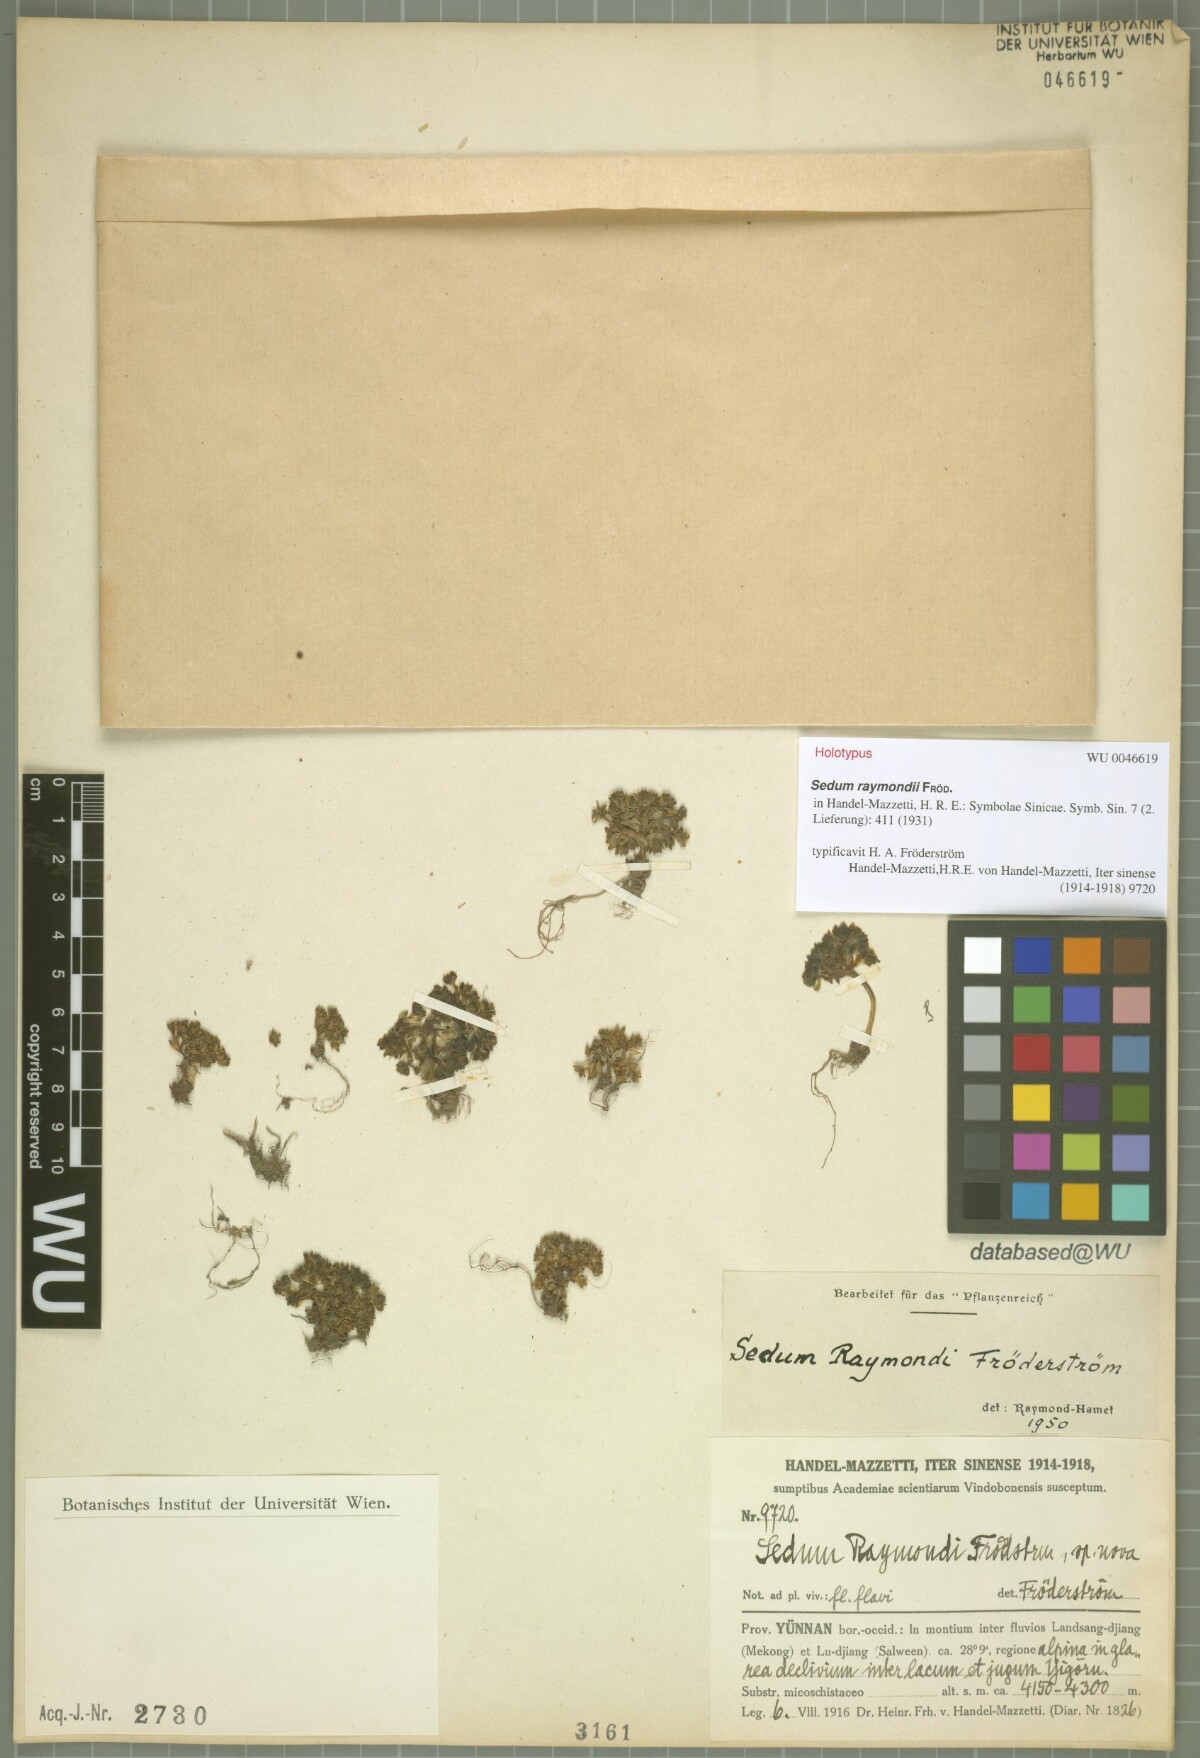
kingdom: Plantae
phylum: Tracheophyta
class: Magnoliopsida
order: Saxifragales
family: Crassulaceae
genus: Sedum
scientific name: Sedum raymondii
